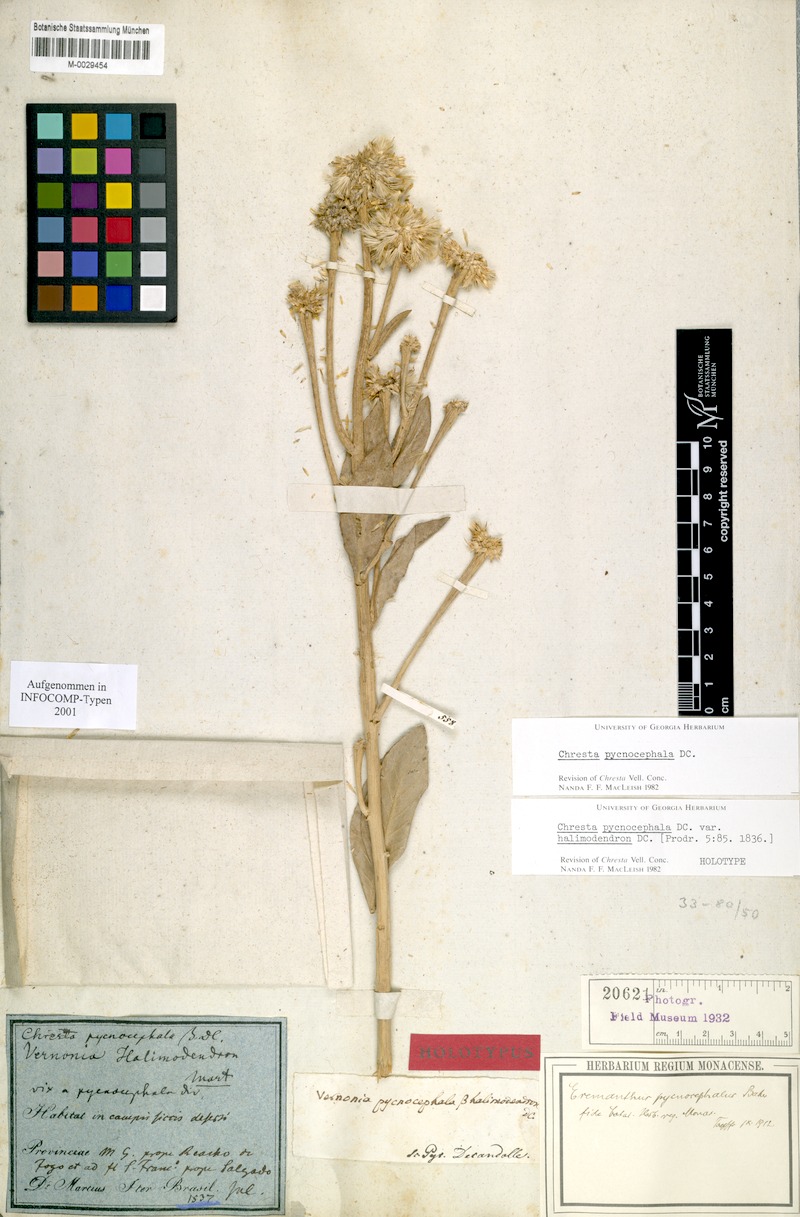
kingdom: Plantae
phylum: Tracheophyta
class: Magnoliopsida
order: Asterales
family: Asteraceae
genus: Chresta
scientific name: Chresta pycnocephala
